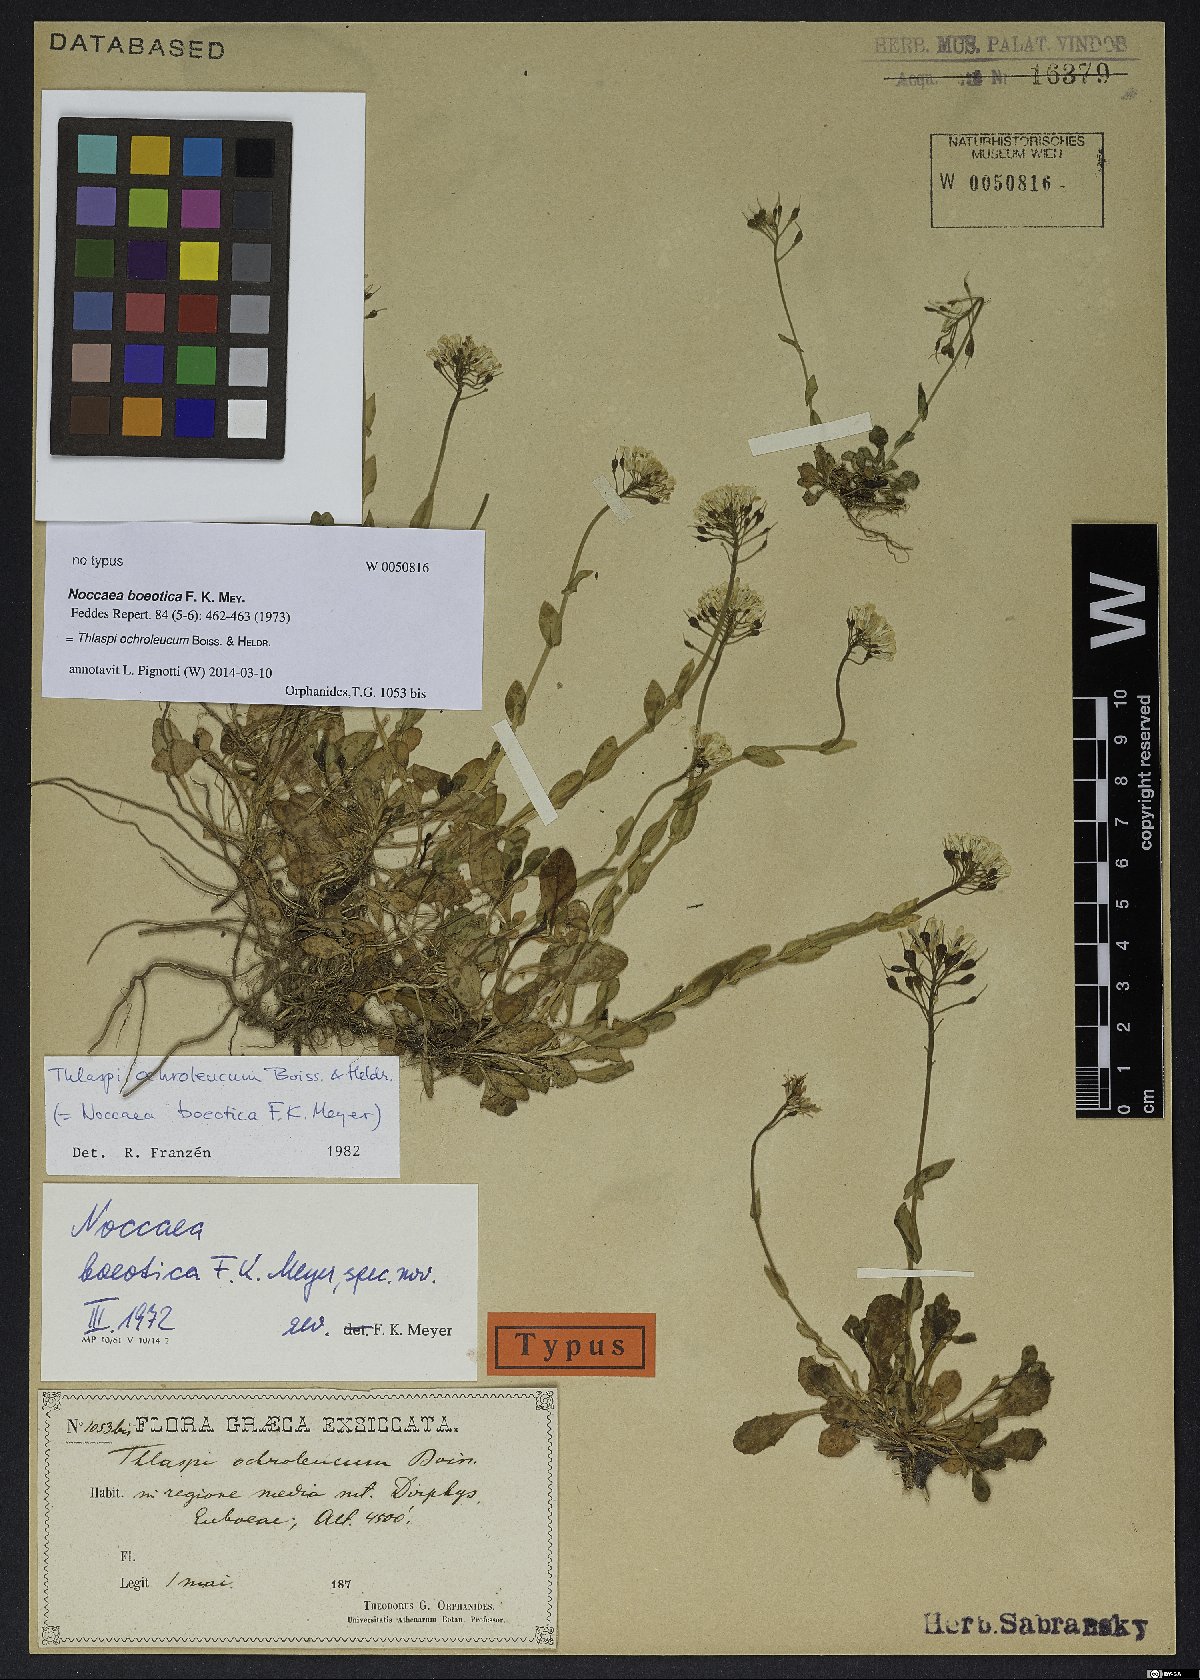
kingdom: Plantae
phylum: Tracheophyta
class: Magnoliopsida
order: Brassicales
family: Brassicaceae
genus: Noccaea
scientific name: Noccaea ochroleuca
